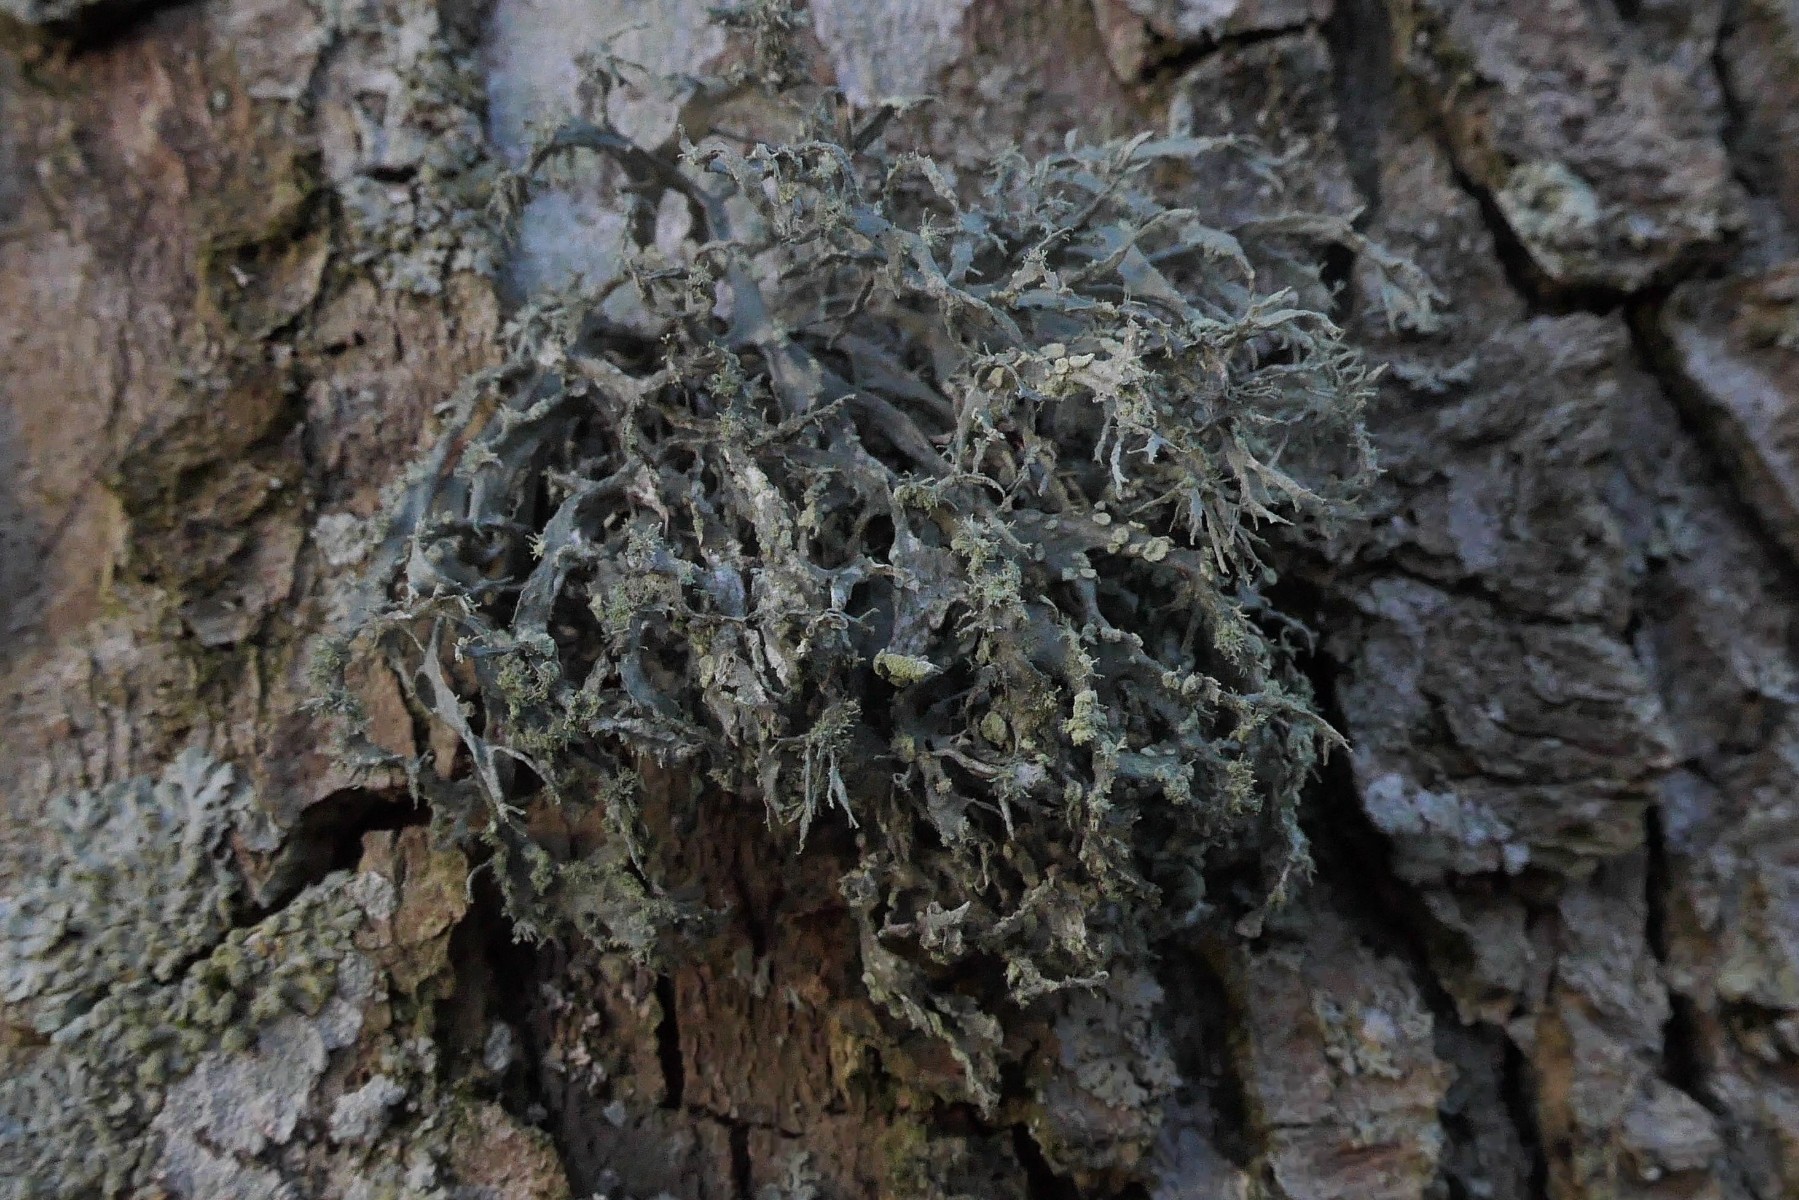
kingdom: Fungi
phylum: Ascomycota
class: Lecanoromycetes
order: Lecanorales
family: Ramalinaceae
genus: Ramalina
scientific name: Ramalina farinacea
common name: melet grenlav
